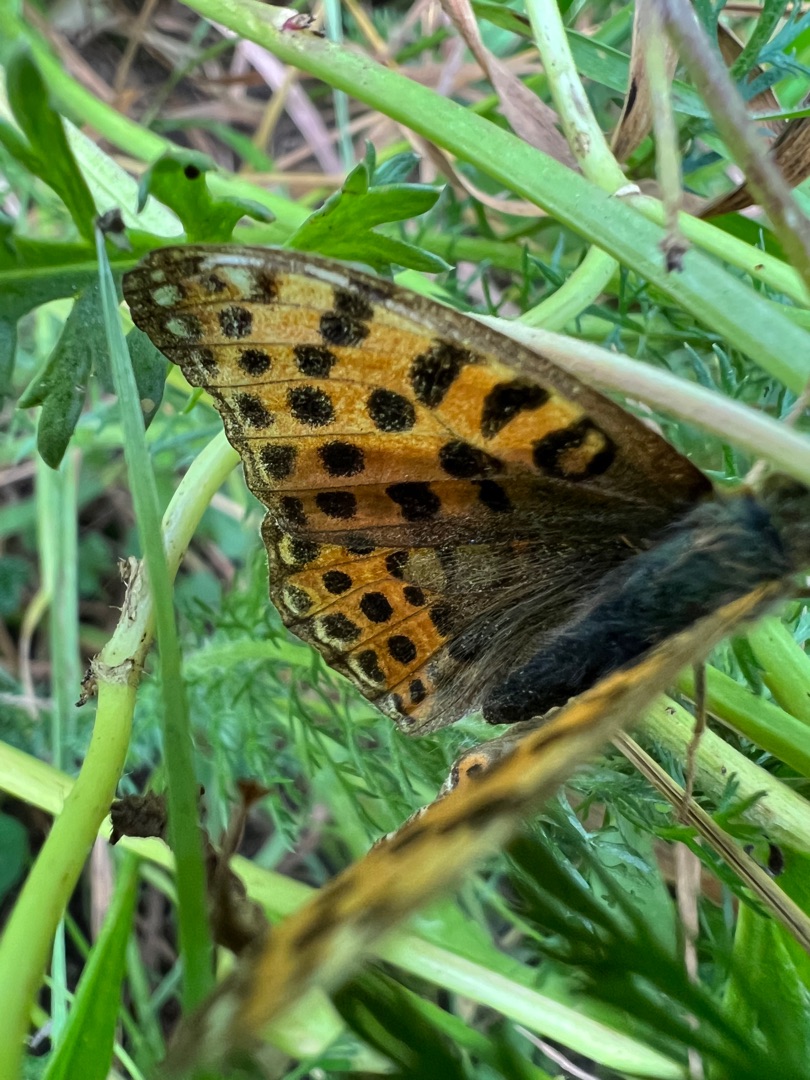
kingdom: Animalia
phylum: Arthropoda
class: Insecta
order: Lepidoptera
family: Nymphalidae
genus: Issoria
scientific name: Issoria lathonia
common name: Storplettet perlemorsommerfugl
